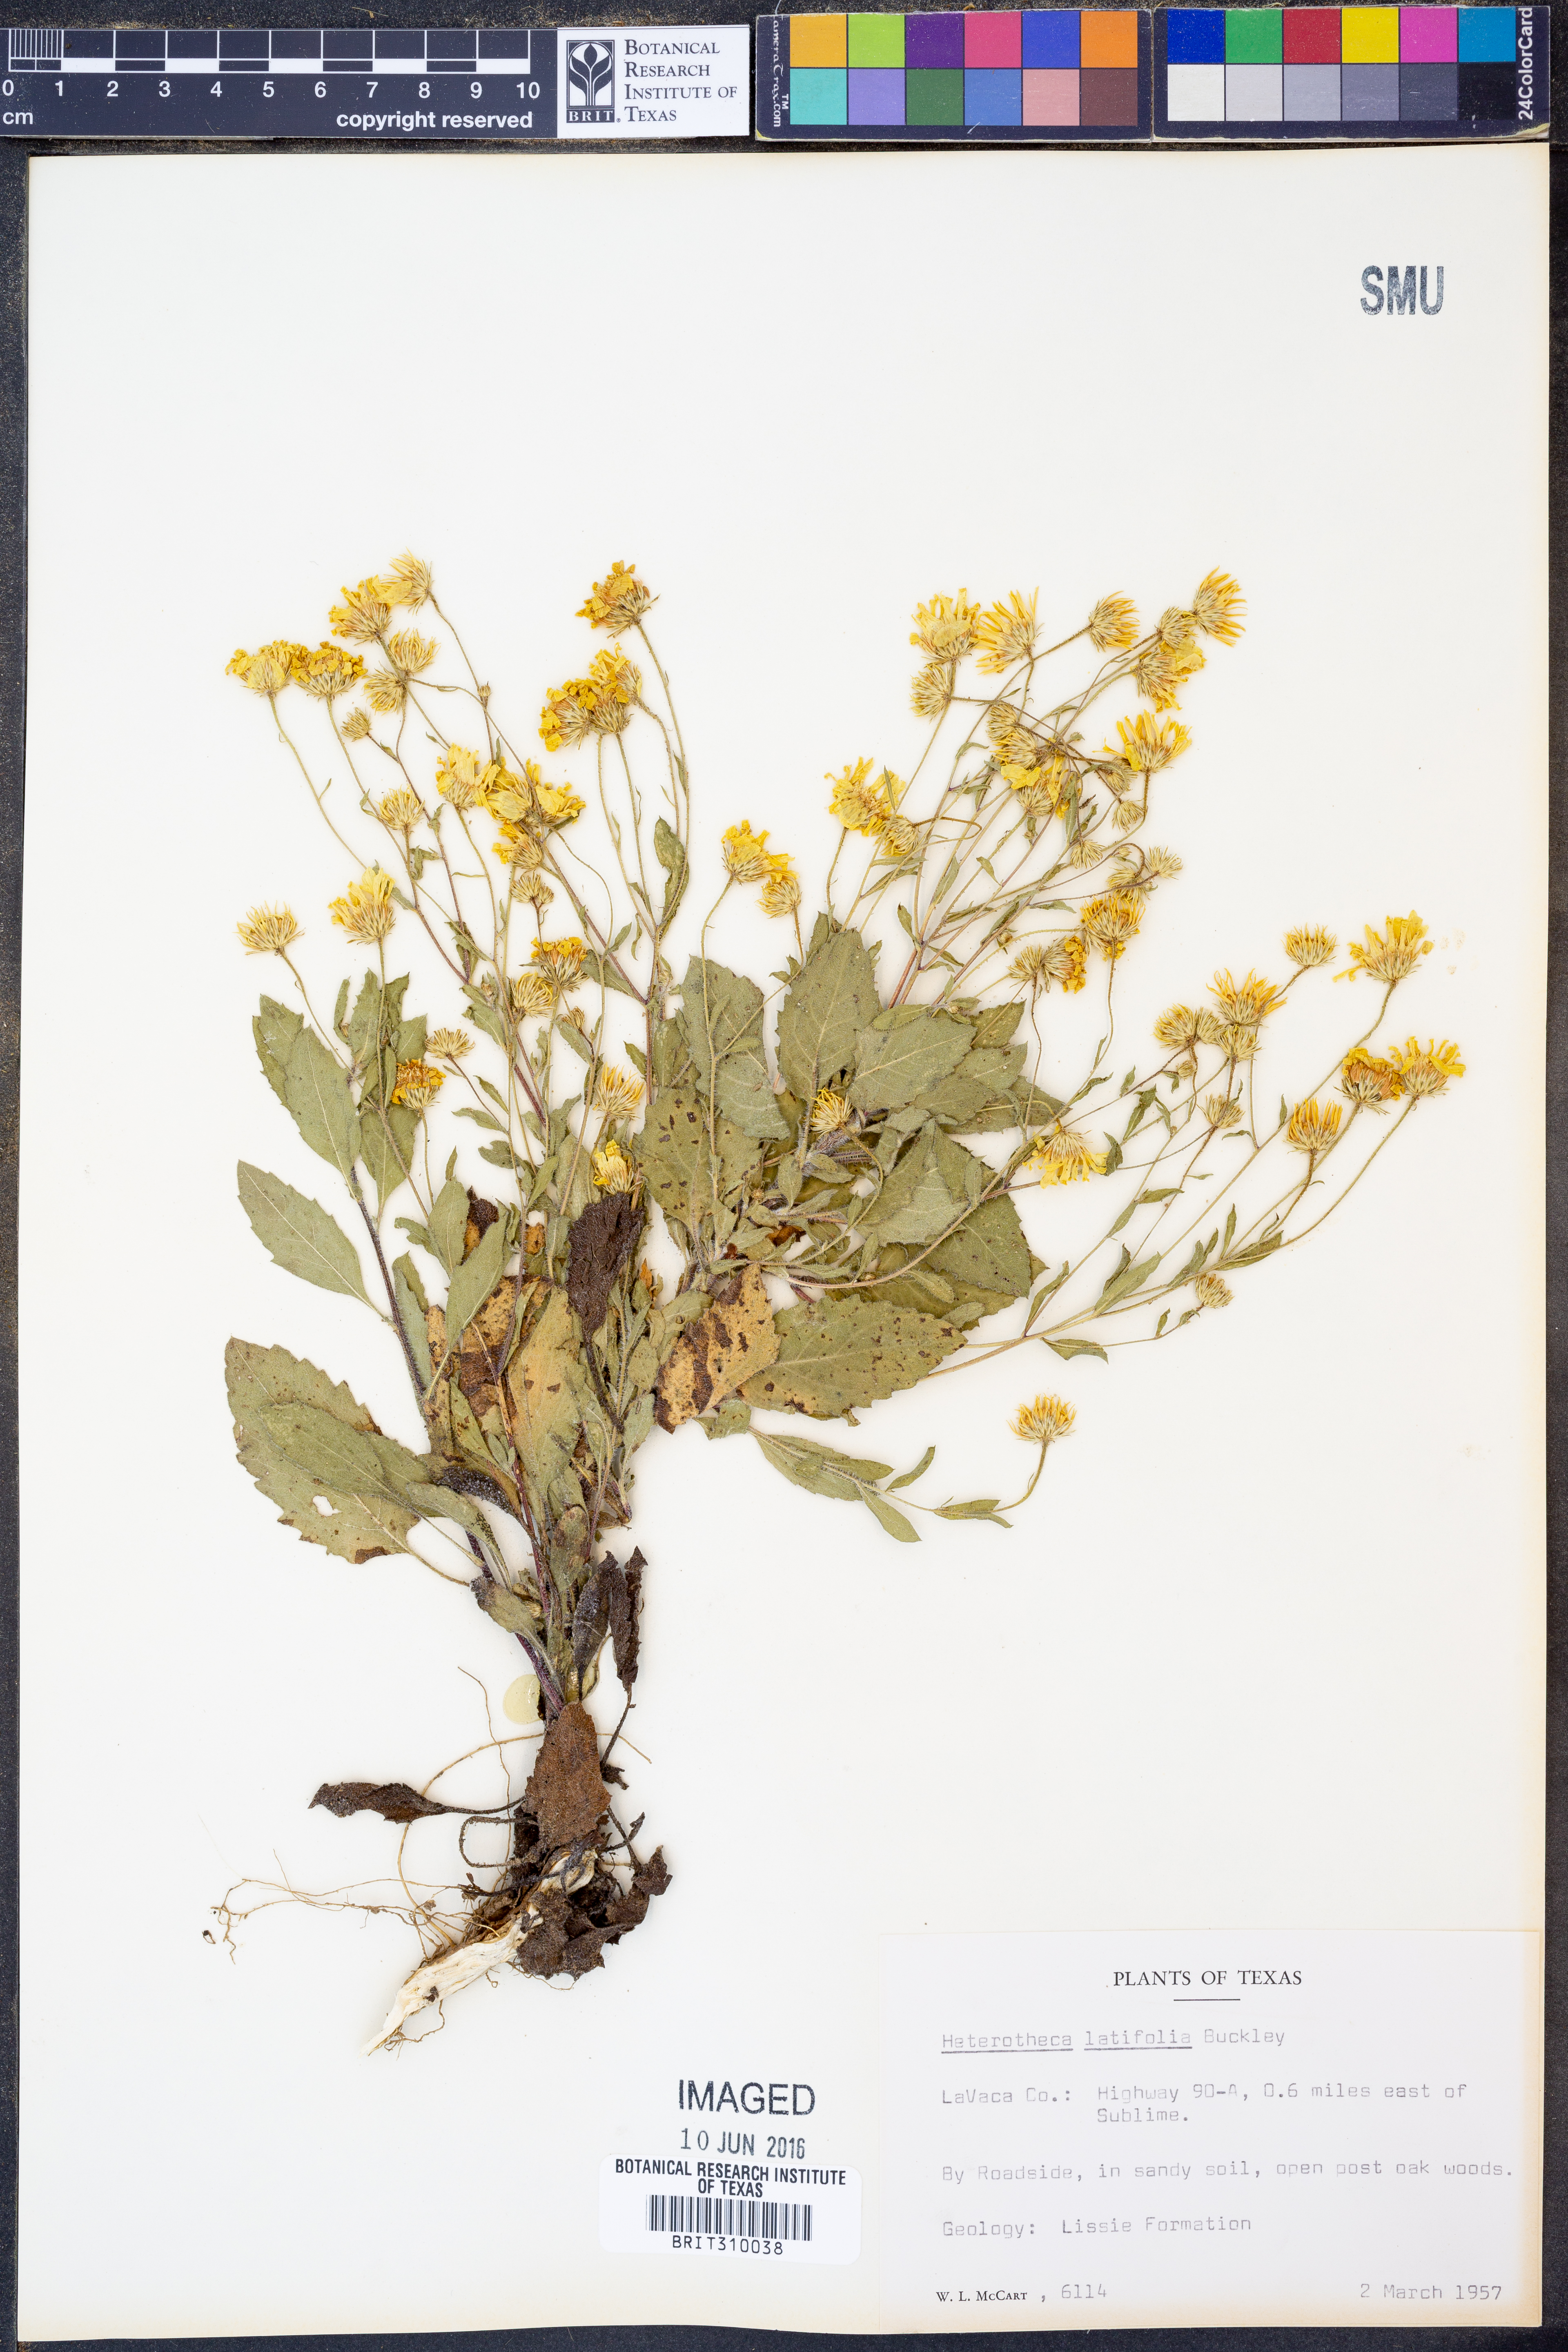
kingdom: Plantae
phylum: Tracheophyta
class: Magnoliopsida
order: Asterales
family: Asteraceae
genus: Heterotheca
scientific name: Heterotheca subaxillaris
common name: Camphorweed
